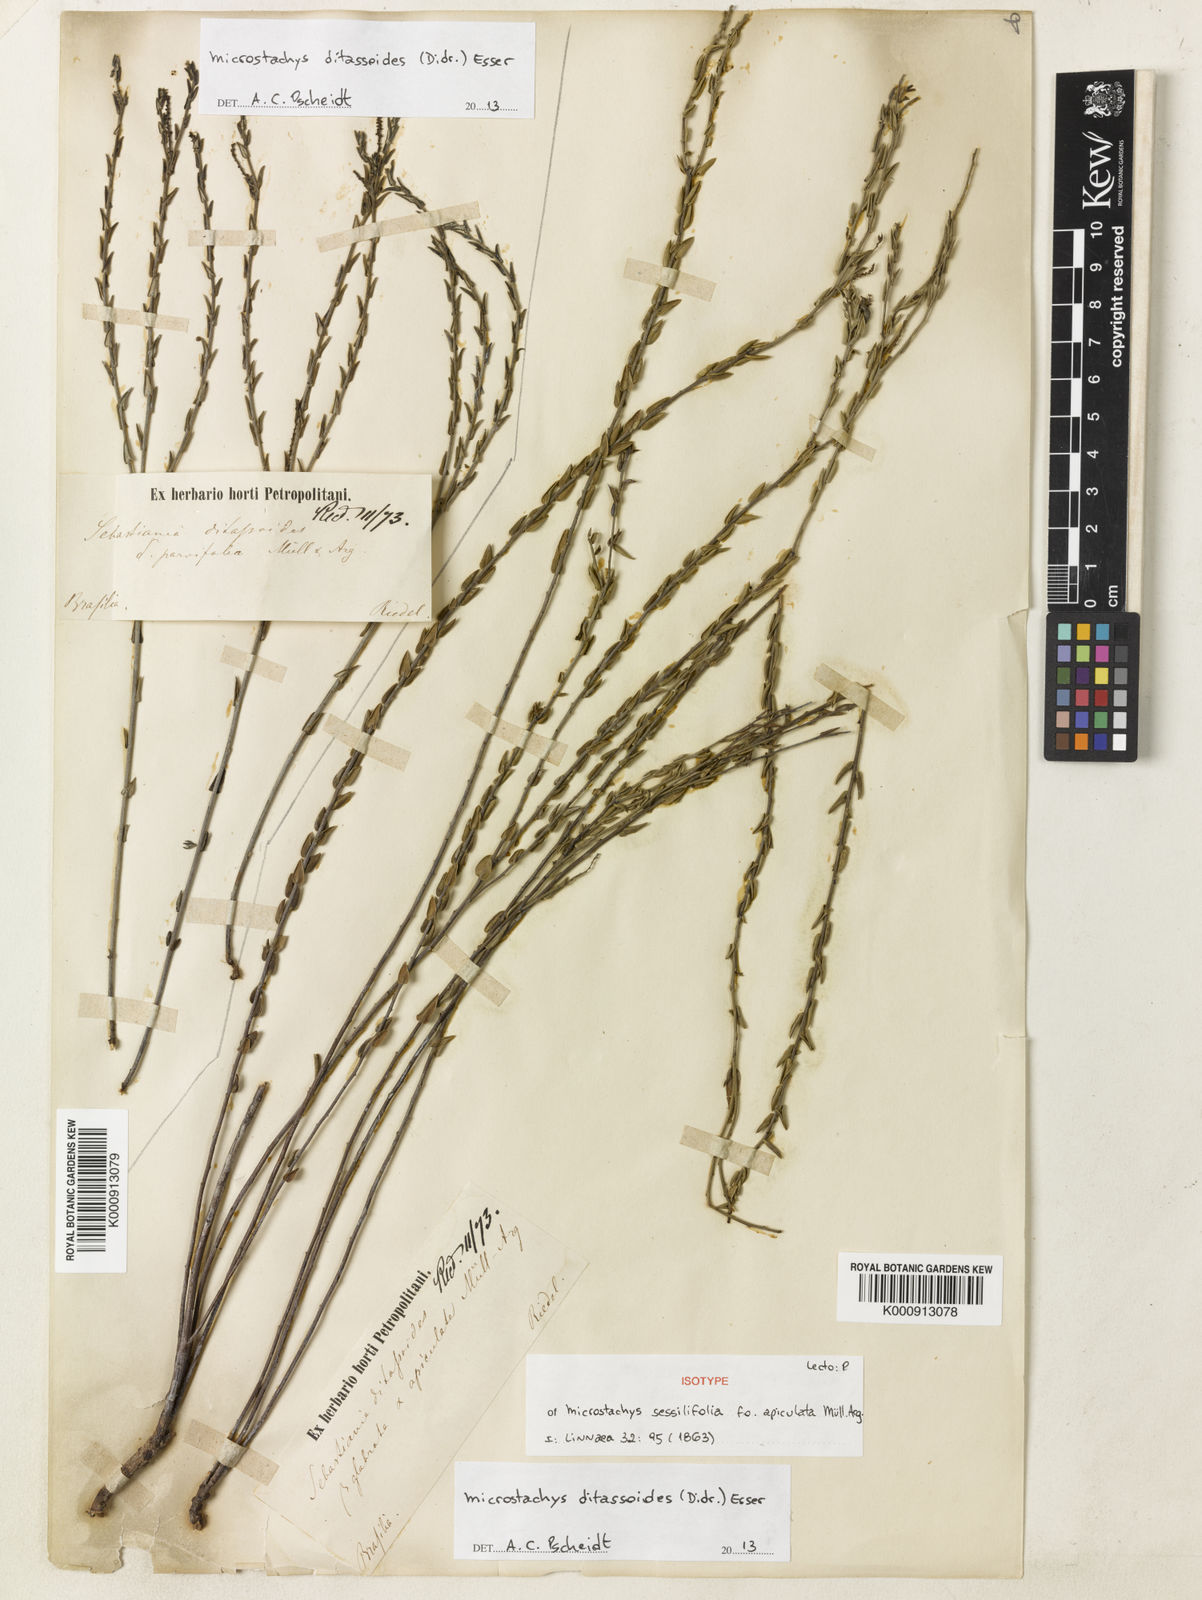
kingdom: Plantae
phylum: Tracheophyta
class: Magnoliopsida
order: Malpighiales
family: Euphorbiaceae
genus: Microstachys
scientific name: Microstachys ditassoides
